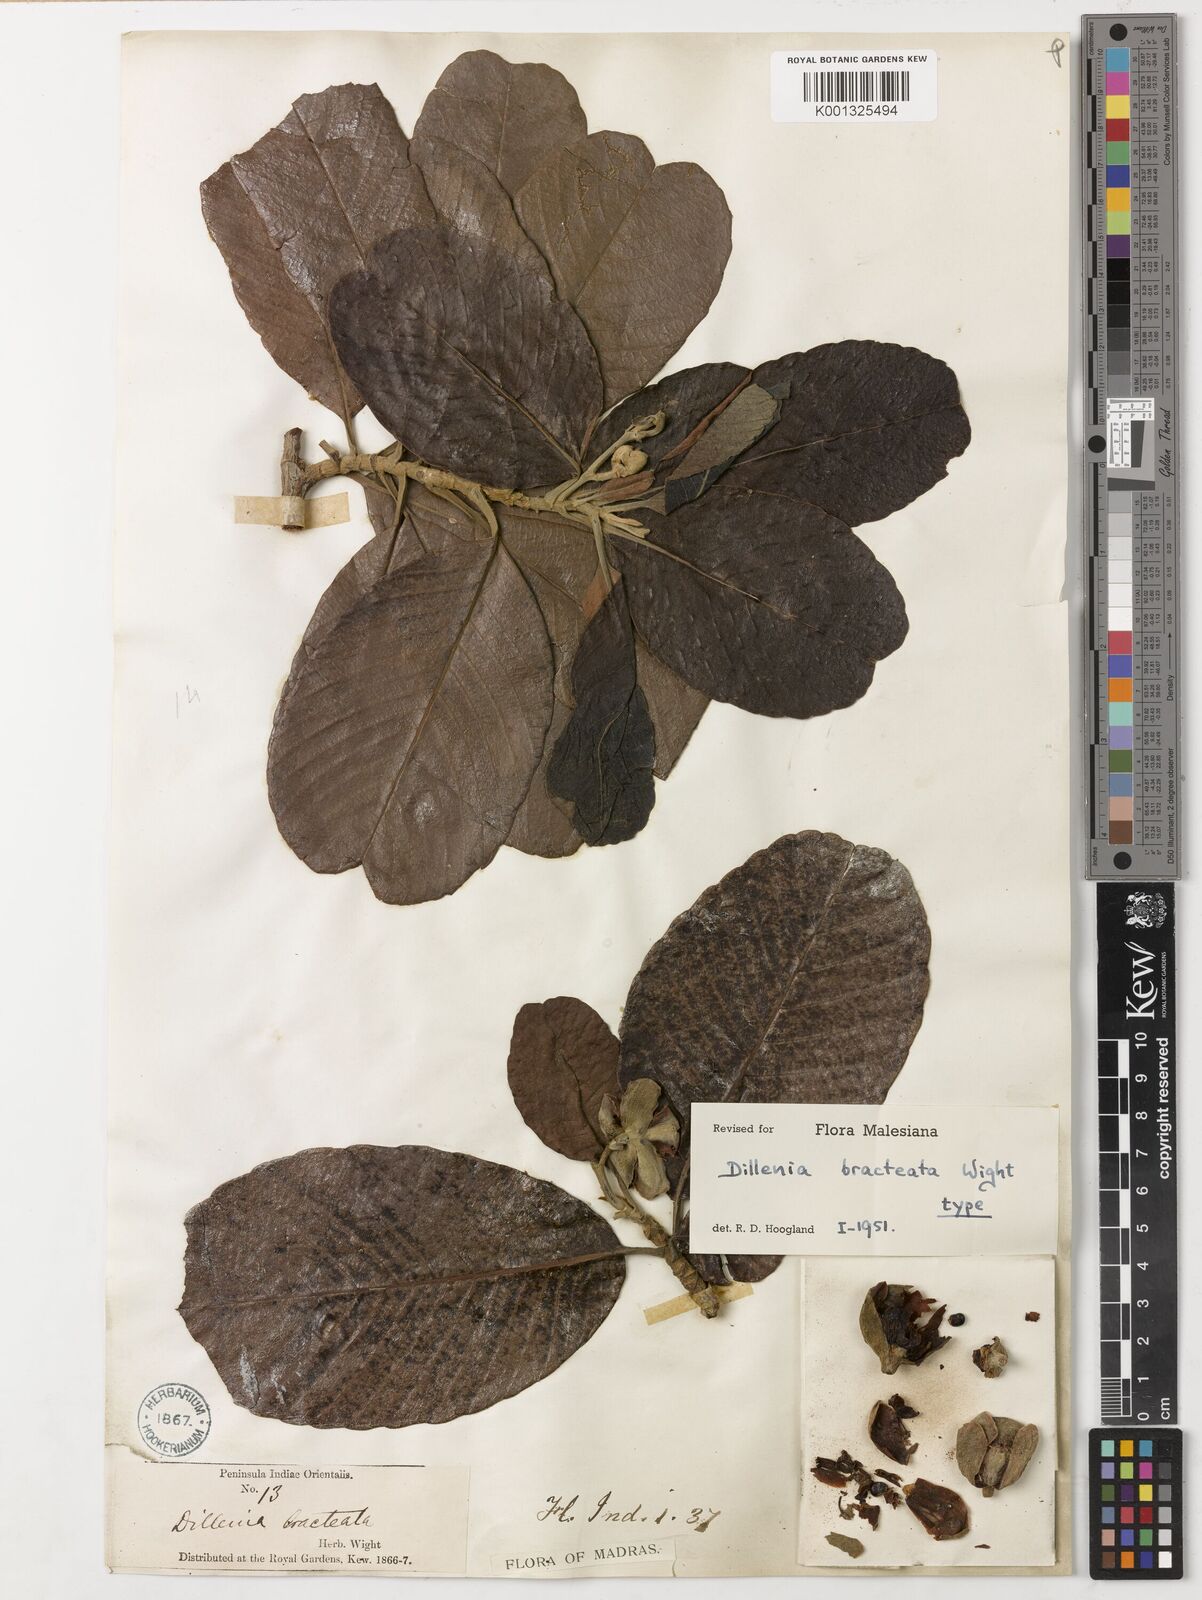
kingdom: Plantae
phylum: Tracheophyta
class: Magnoliopsida
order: Dilleniales
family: Dilleniaceae
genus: Dillenia
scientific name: Dillenia bracteata
